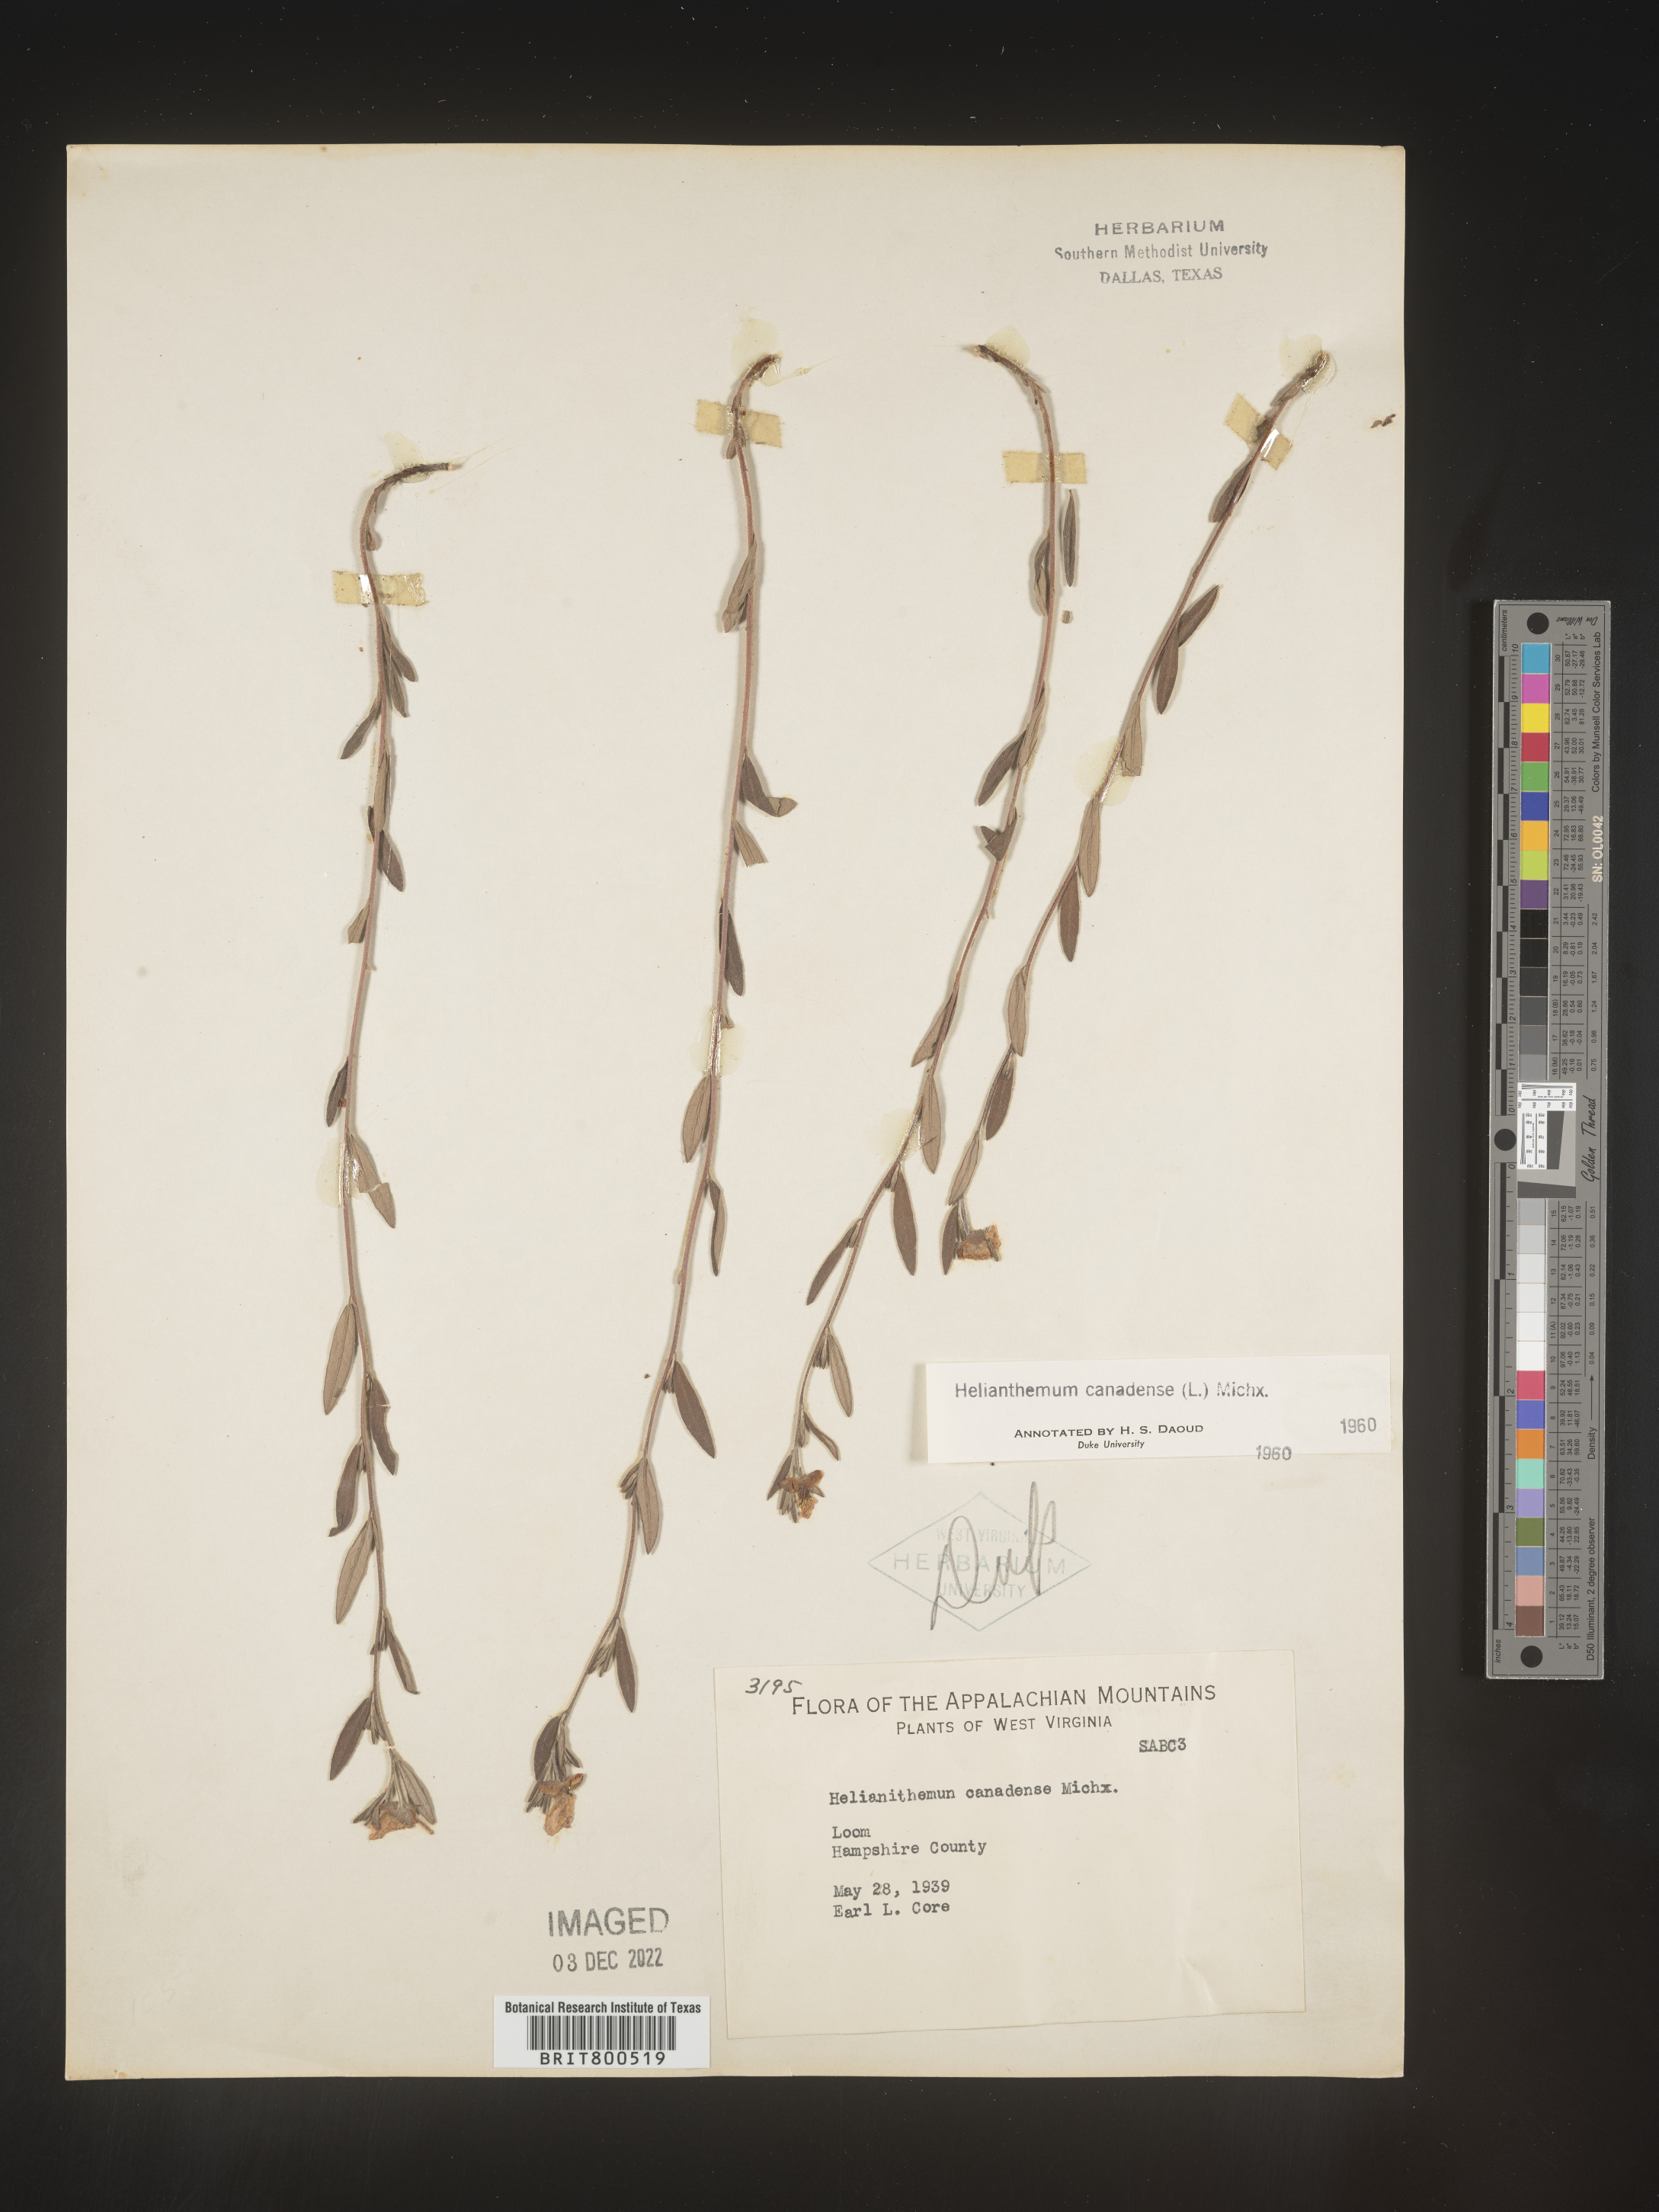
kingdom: Plantae
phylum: Tracheophyta
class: Magnoliopsida
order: Malvales
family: Cistaceae
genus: Crocanthemum
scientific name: Crocanthemum canadense
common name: Canada frostweed
